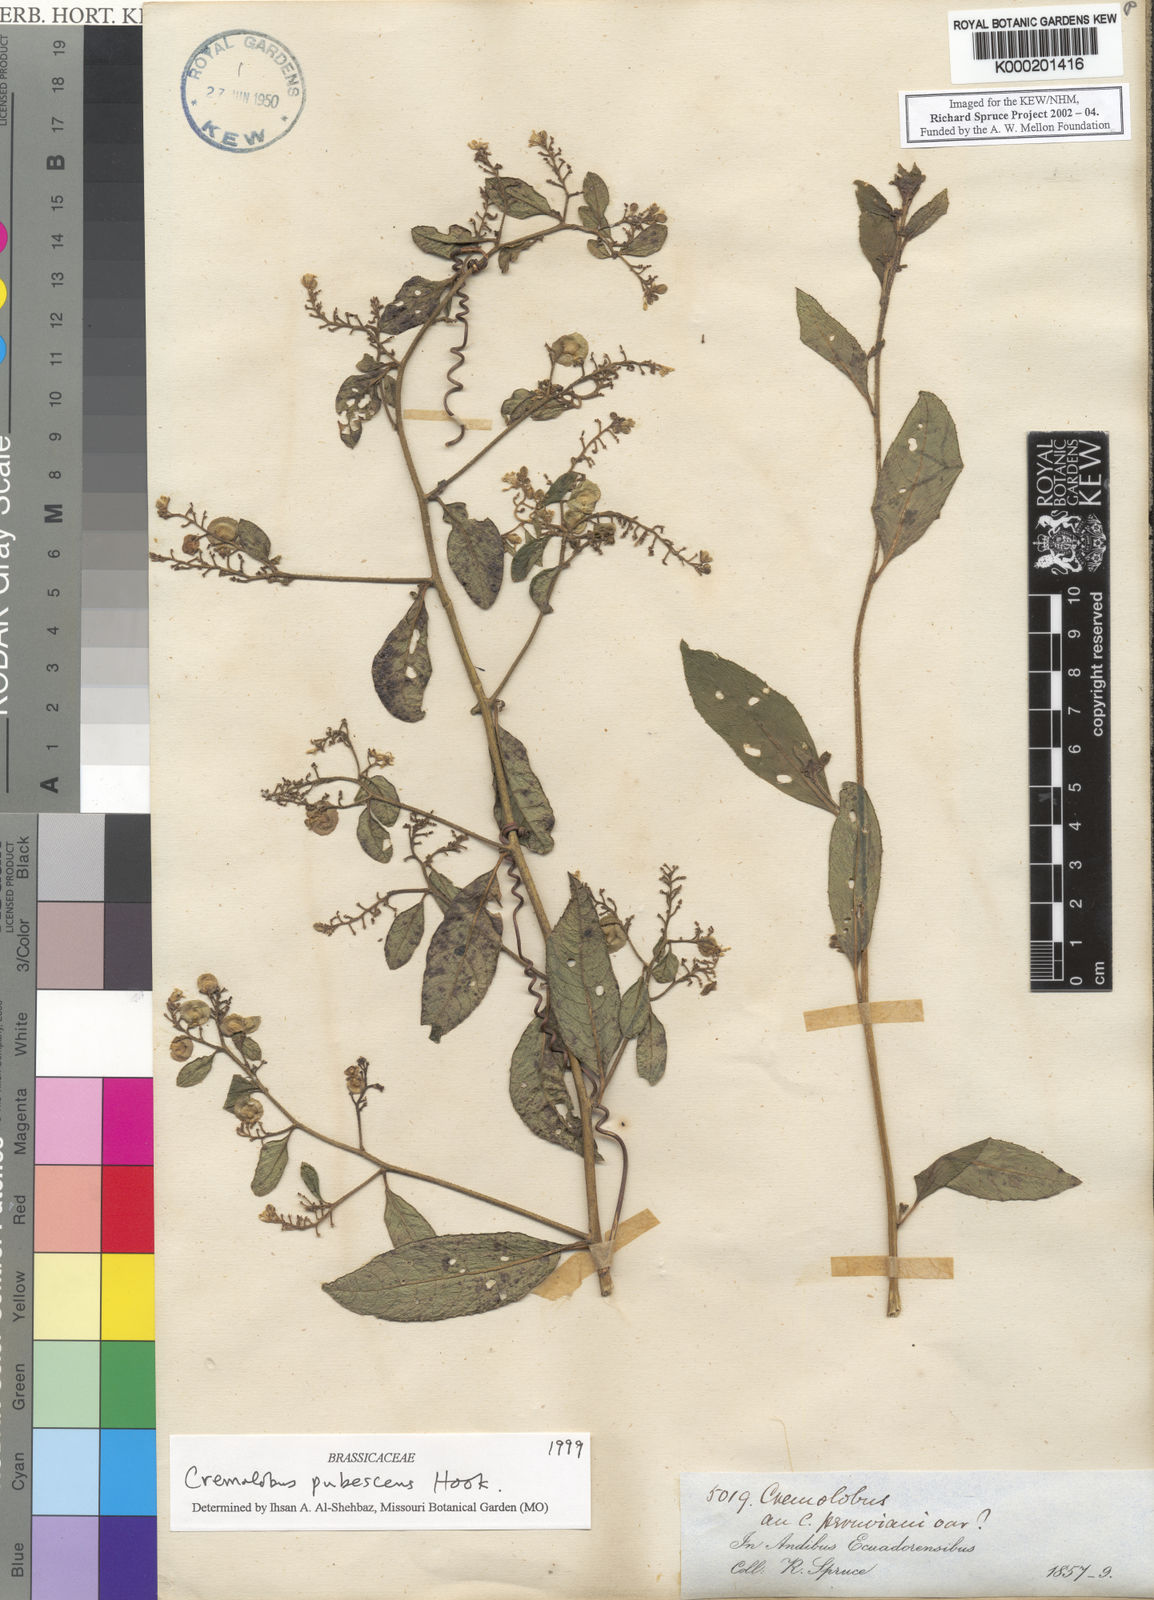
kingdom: Plantae
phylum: Tracheophyta
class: Magnoliopsida
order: Brassicales
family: Brassicaceae
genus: Cremolobus
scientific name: Cremolobus peruvianus
